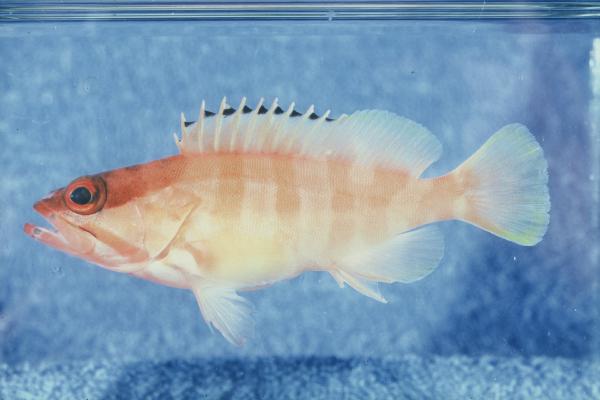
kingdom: Animalia
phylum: Chordata
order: Perciformes
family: Serranidae
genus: Epinephelus
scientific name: Epinephelus fasciatus
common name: Blacktip grouper
